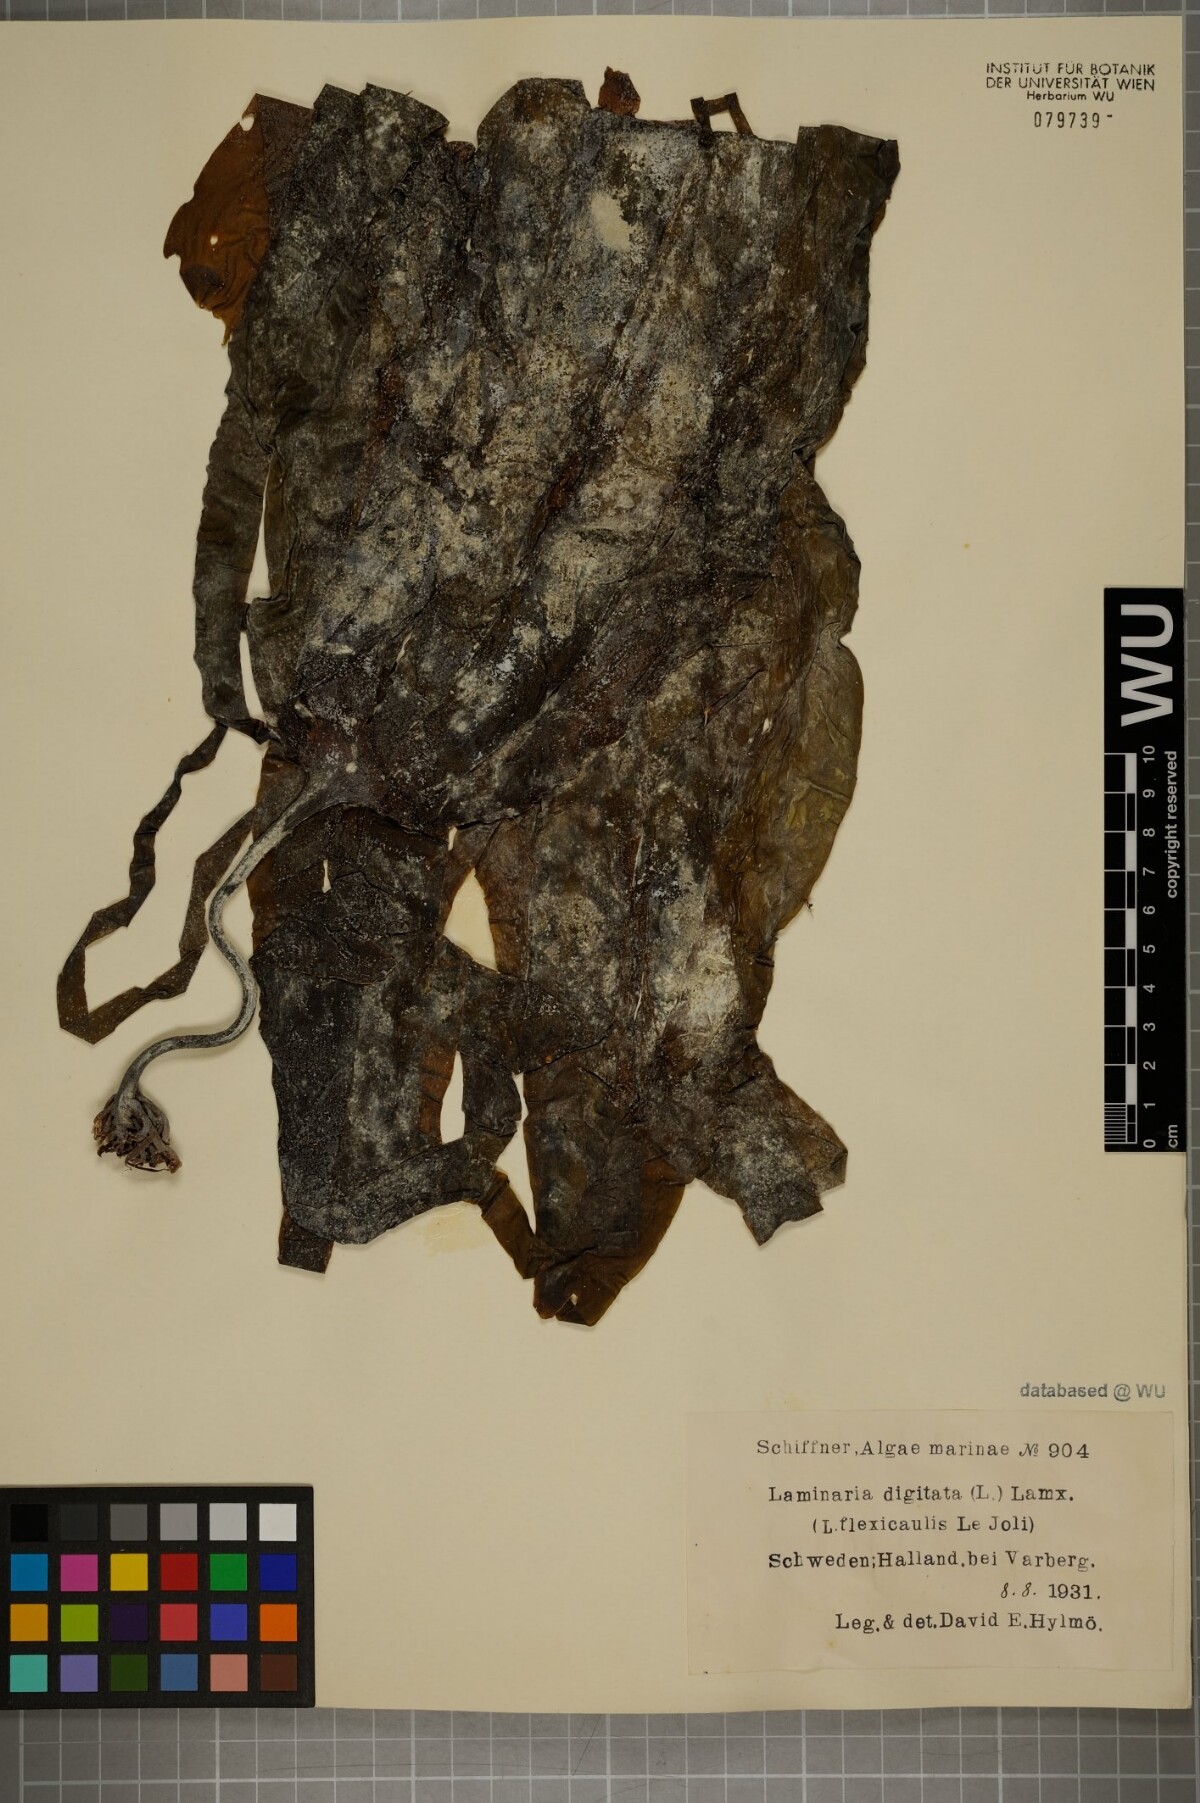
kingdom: Chromista
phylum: Ochrophyta
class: Phaeophyceae
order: Laminariales
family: Laminariaceae
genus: Laminaria
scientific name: Laminaria digitata
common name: Oarweed
